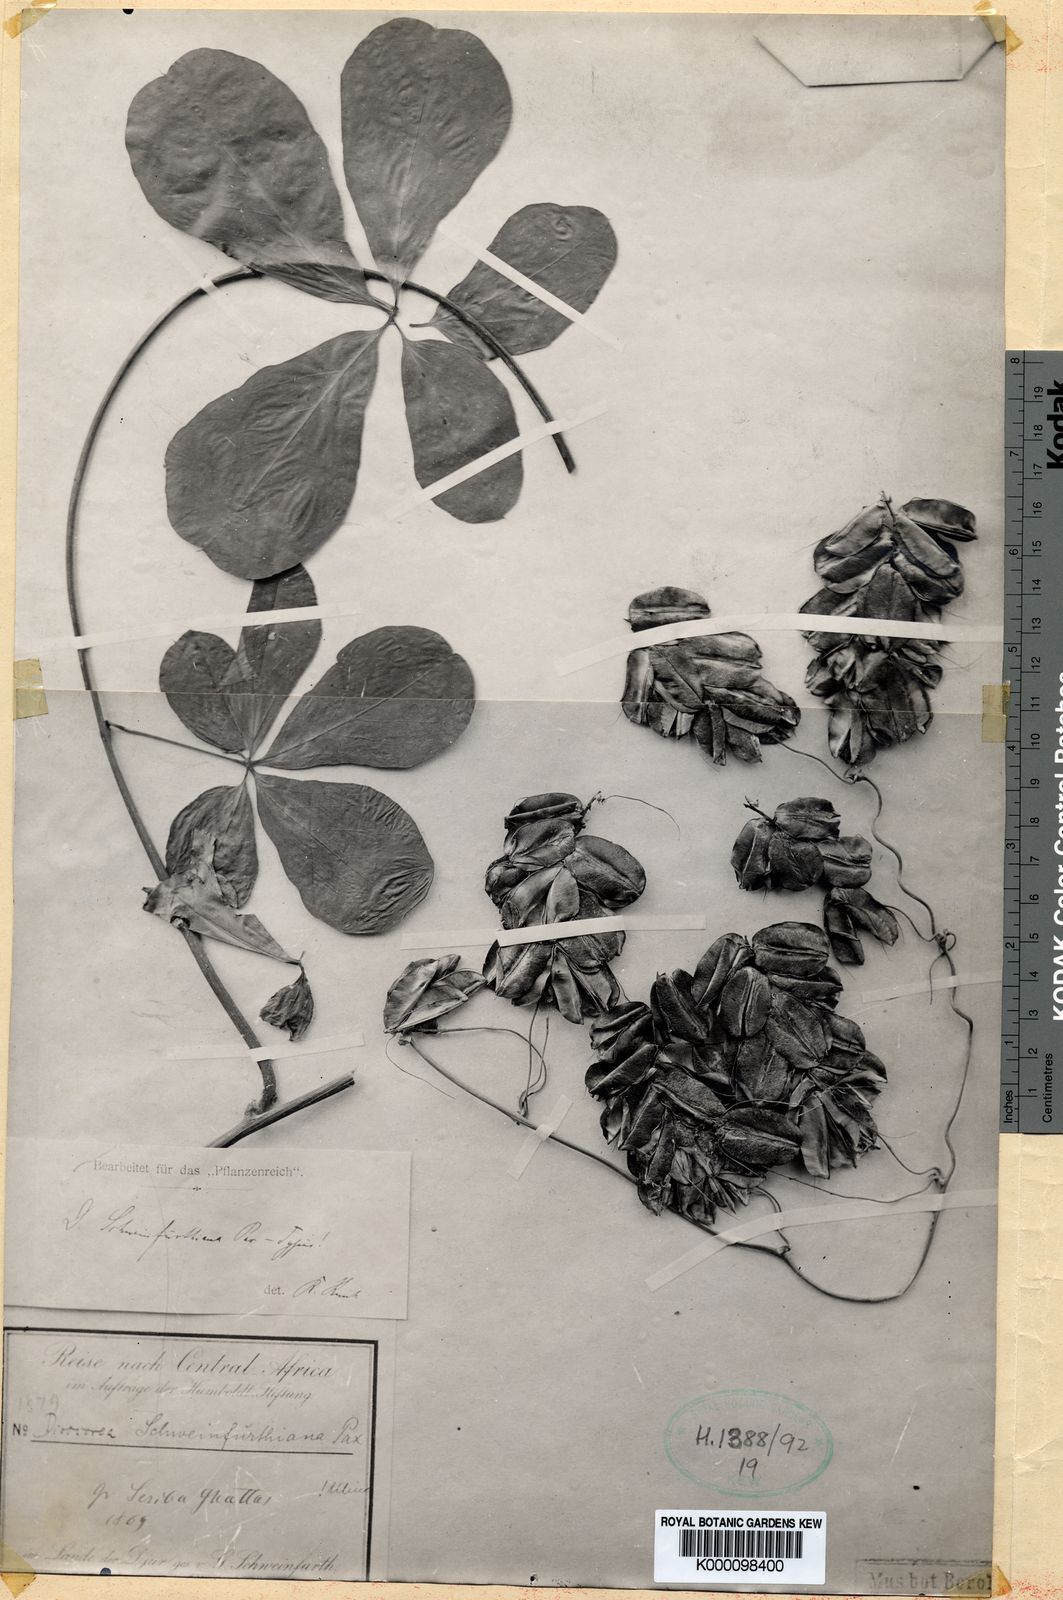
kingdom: Plantae
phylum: Tracheophyta
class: Liliopsida
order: Dioscoreales
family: Dioscoreaceae
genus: Dioscorea
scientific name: Dioscorea quartiniana
